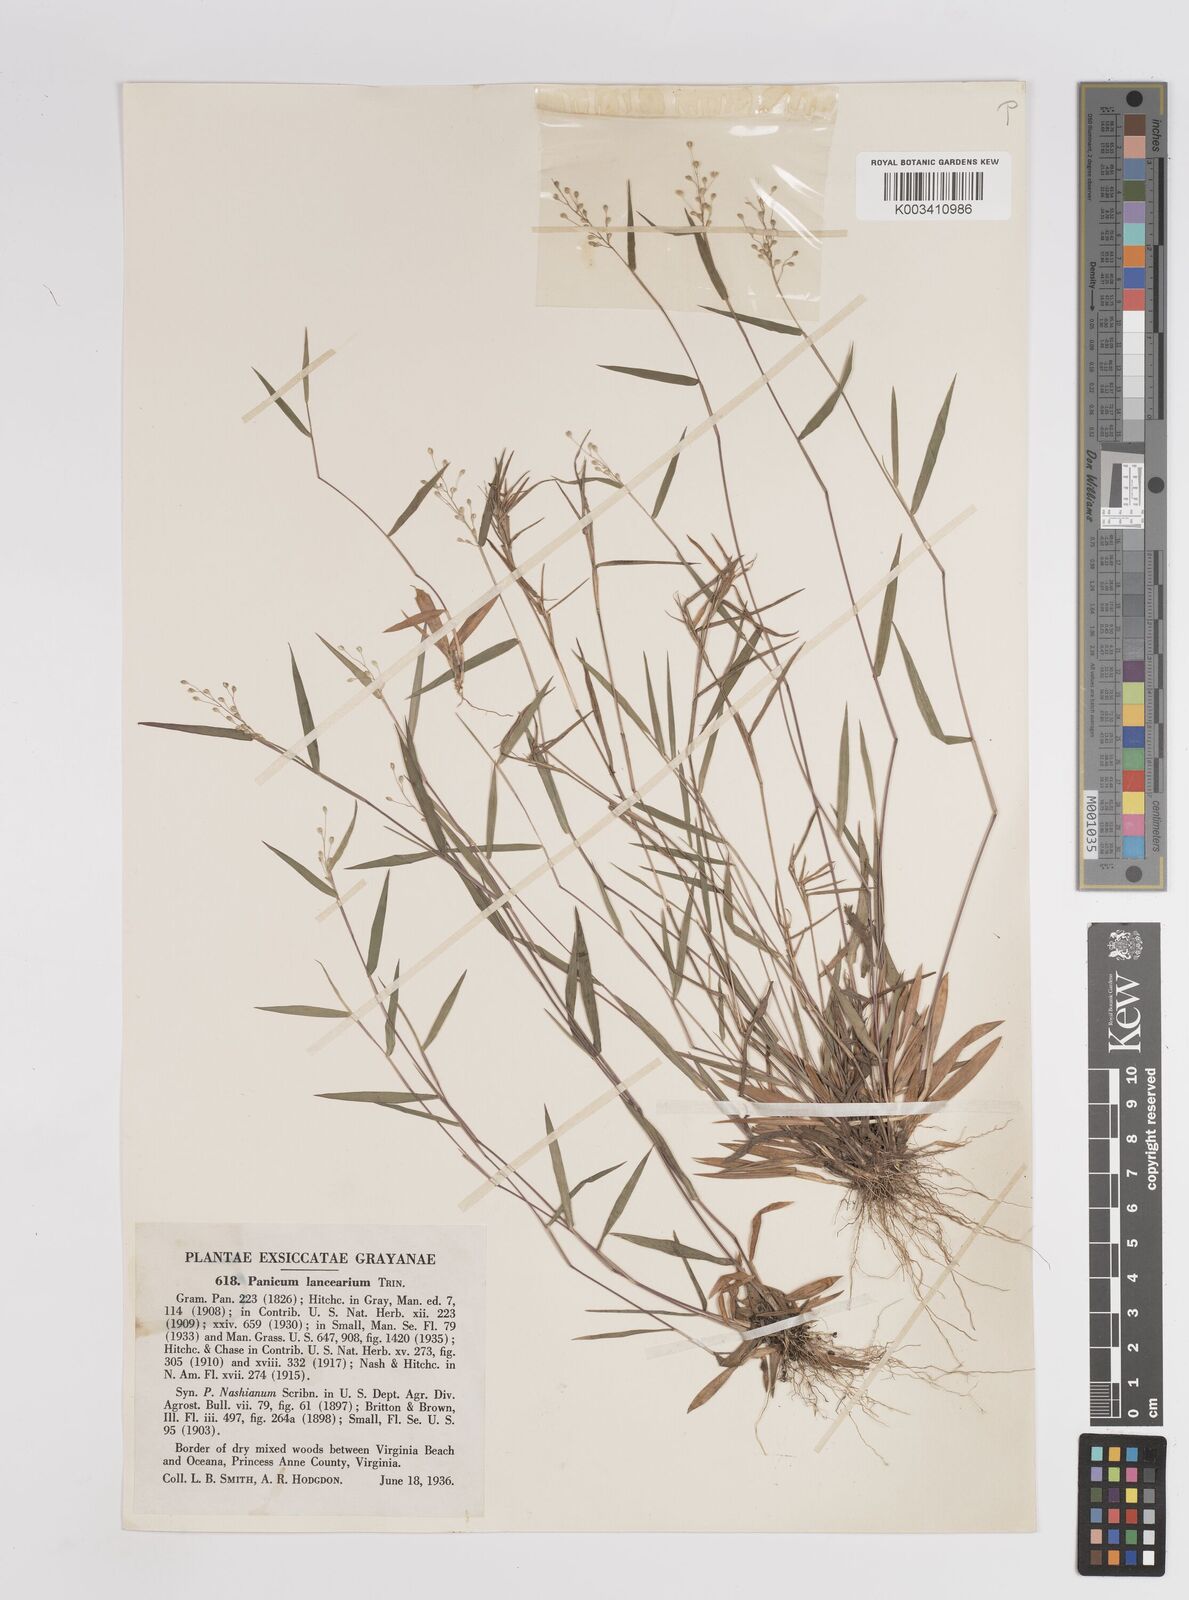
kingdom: Plantae
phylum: Tracheophyta
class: Liliopsida
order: Poales
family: Poaceae
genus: Dichanthelium
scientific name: Dichanthelium portoricense
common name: American panicgrass
